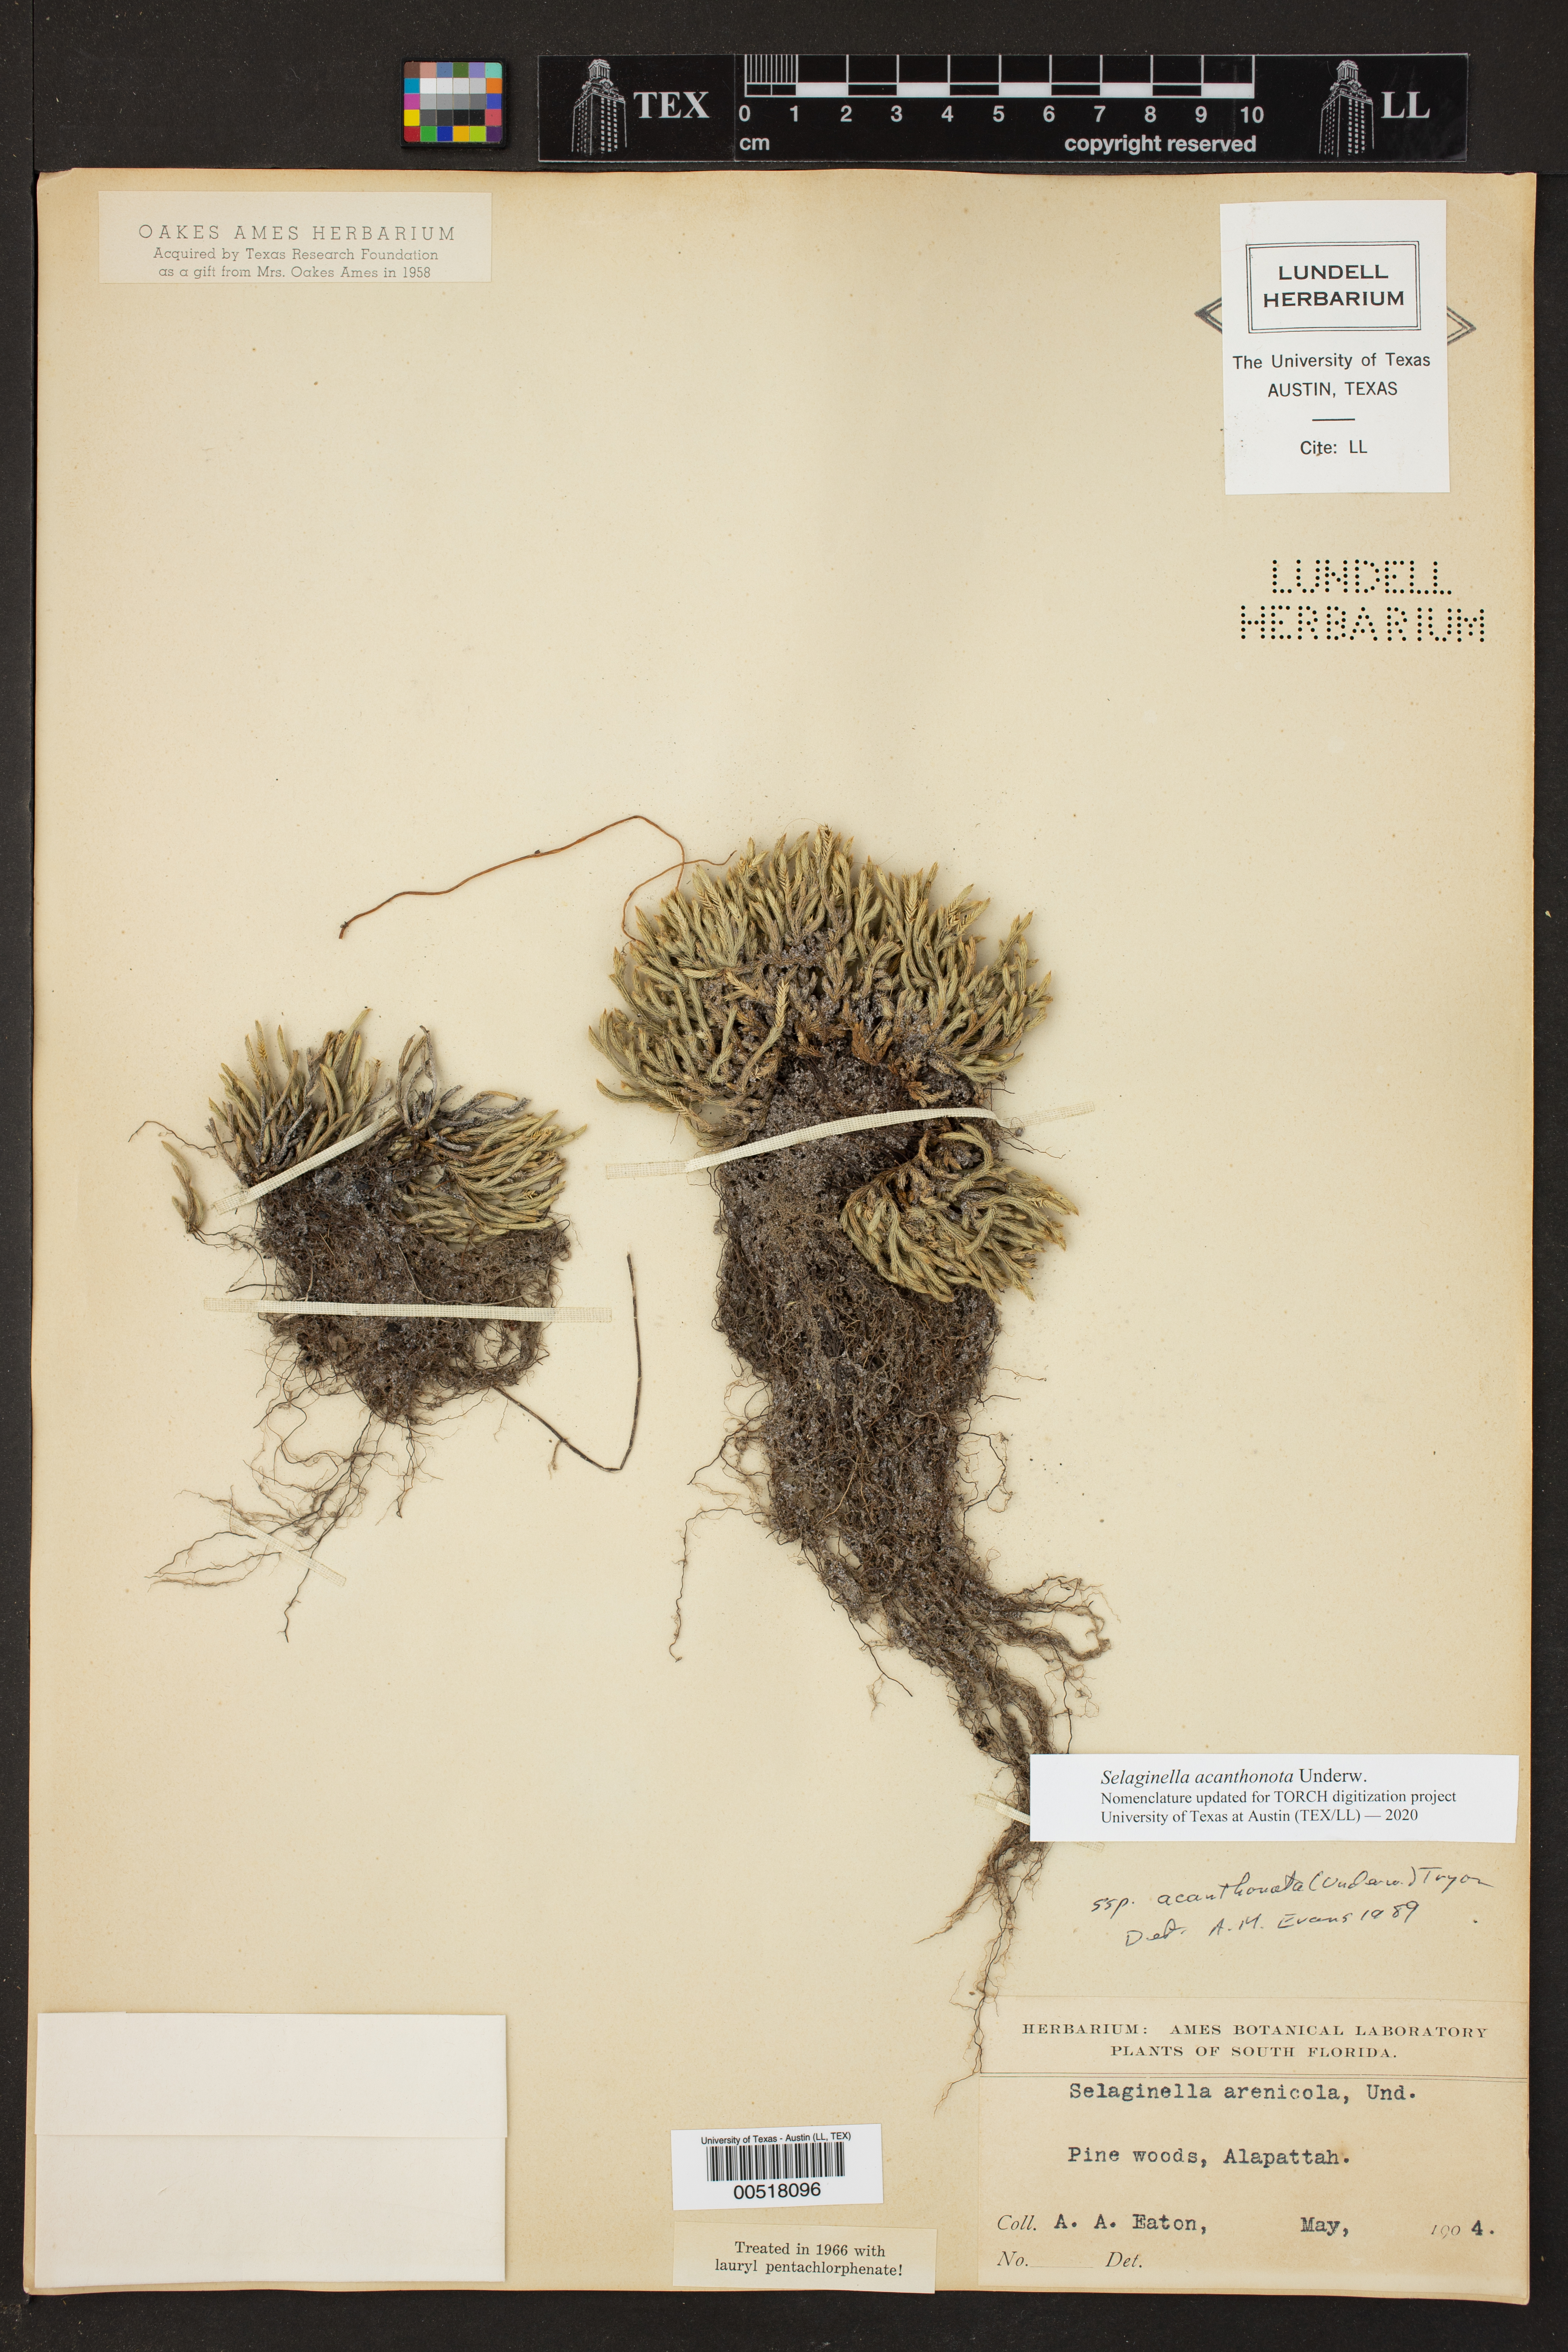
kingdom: Plantae
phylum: Tracheophyta
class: Lycopodiopsida
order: Selaginellales
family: Selaginellaceae
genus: Selaginella
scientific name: Selaginella acanthonota
